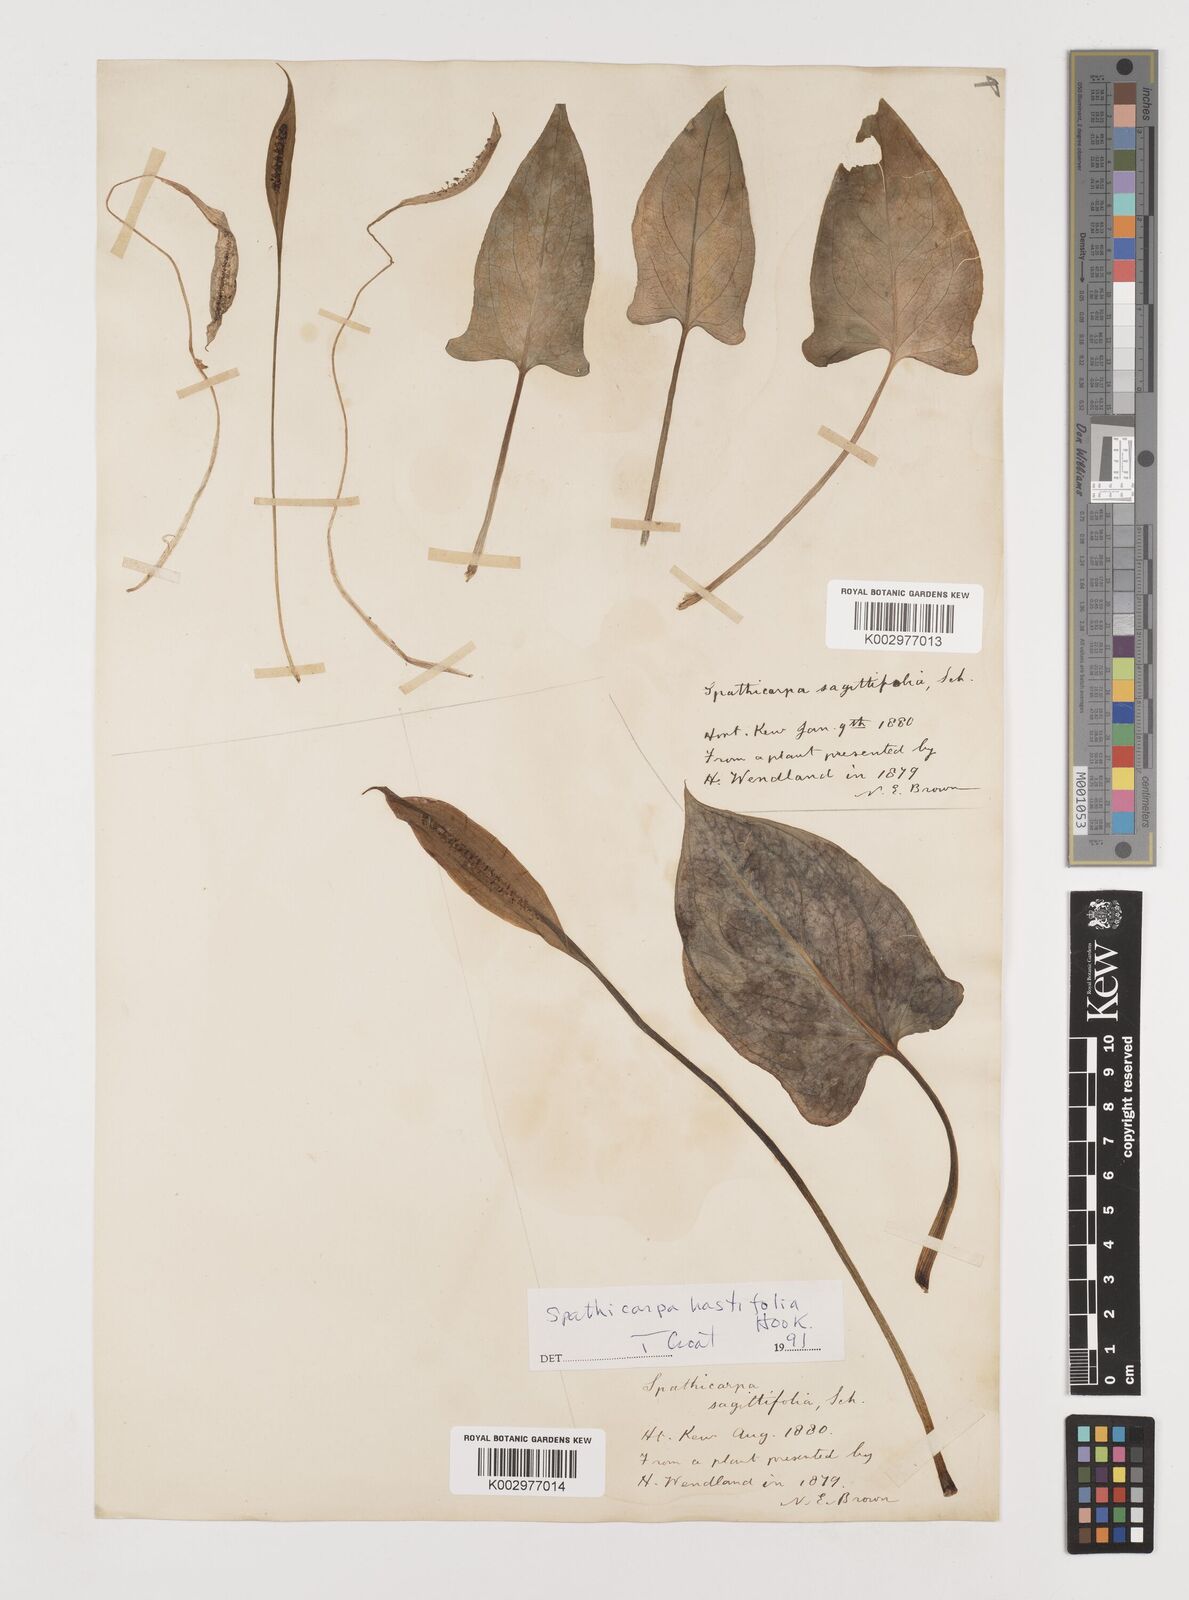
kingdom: Plantae
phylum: Tracheophyta
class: Liliopsida
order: Alismatales
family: Araceae
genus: Spathicarpa
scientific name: Spathicarpa hastifolia
